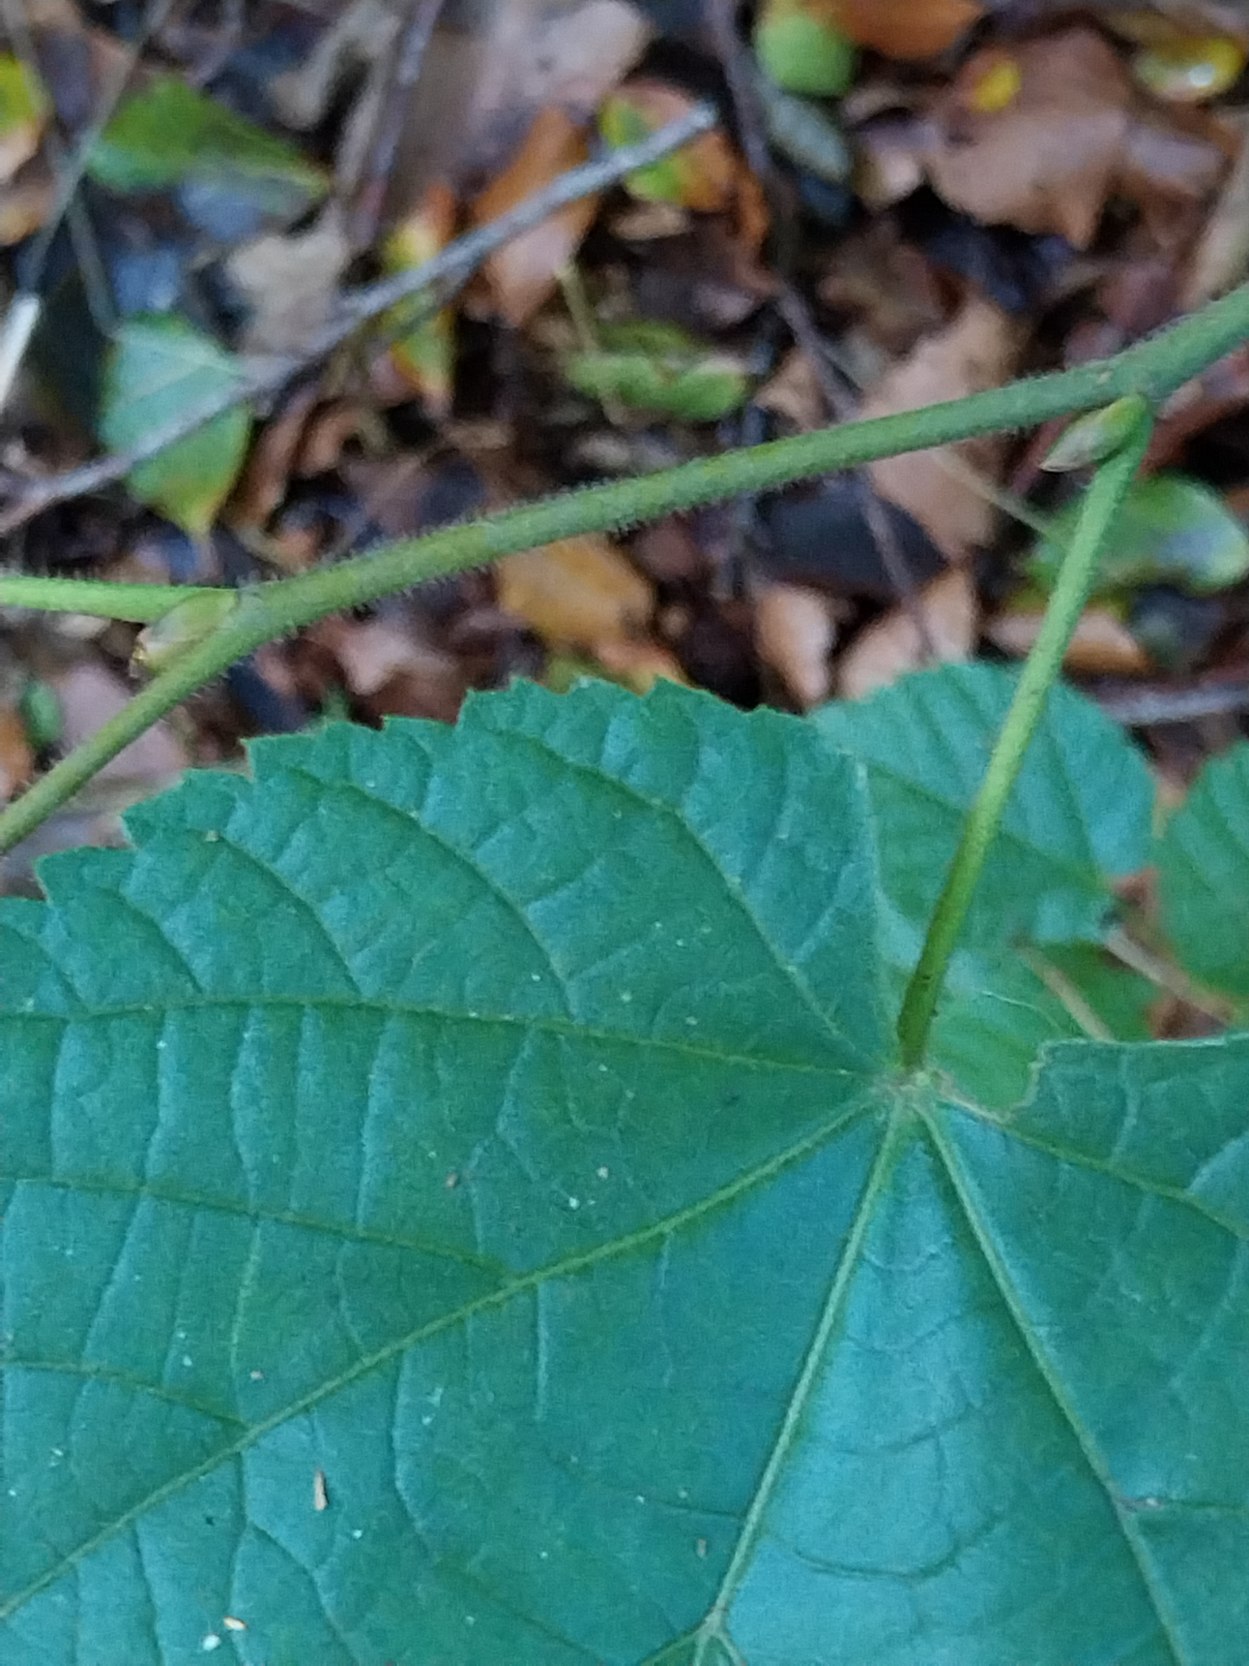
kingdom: Plantae
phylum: Tracheophyta
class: Magnoliopsida
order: Malvales
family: Malvaceae
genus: Tilia
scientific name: Tilia platyphyllos
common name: Storbladet lind
